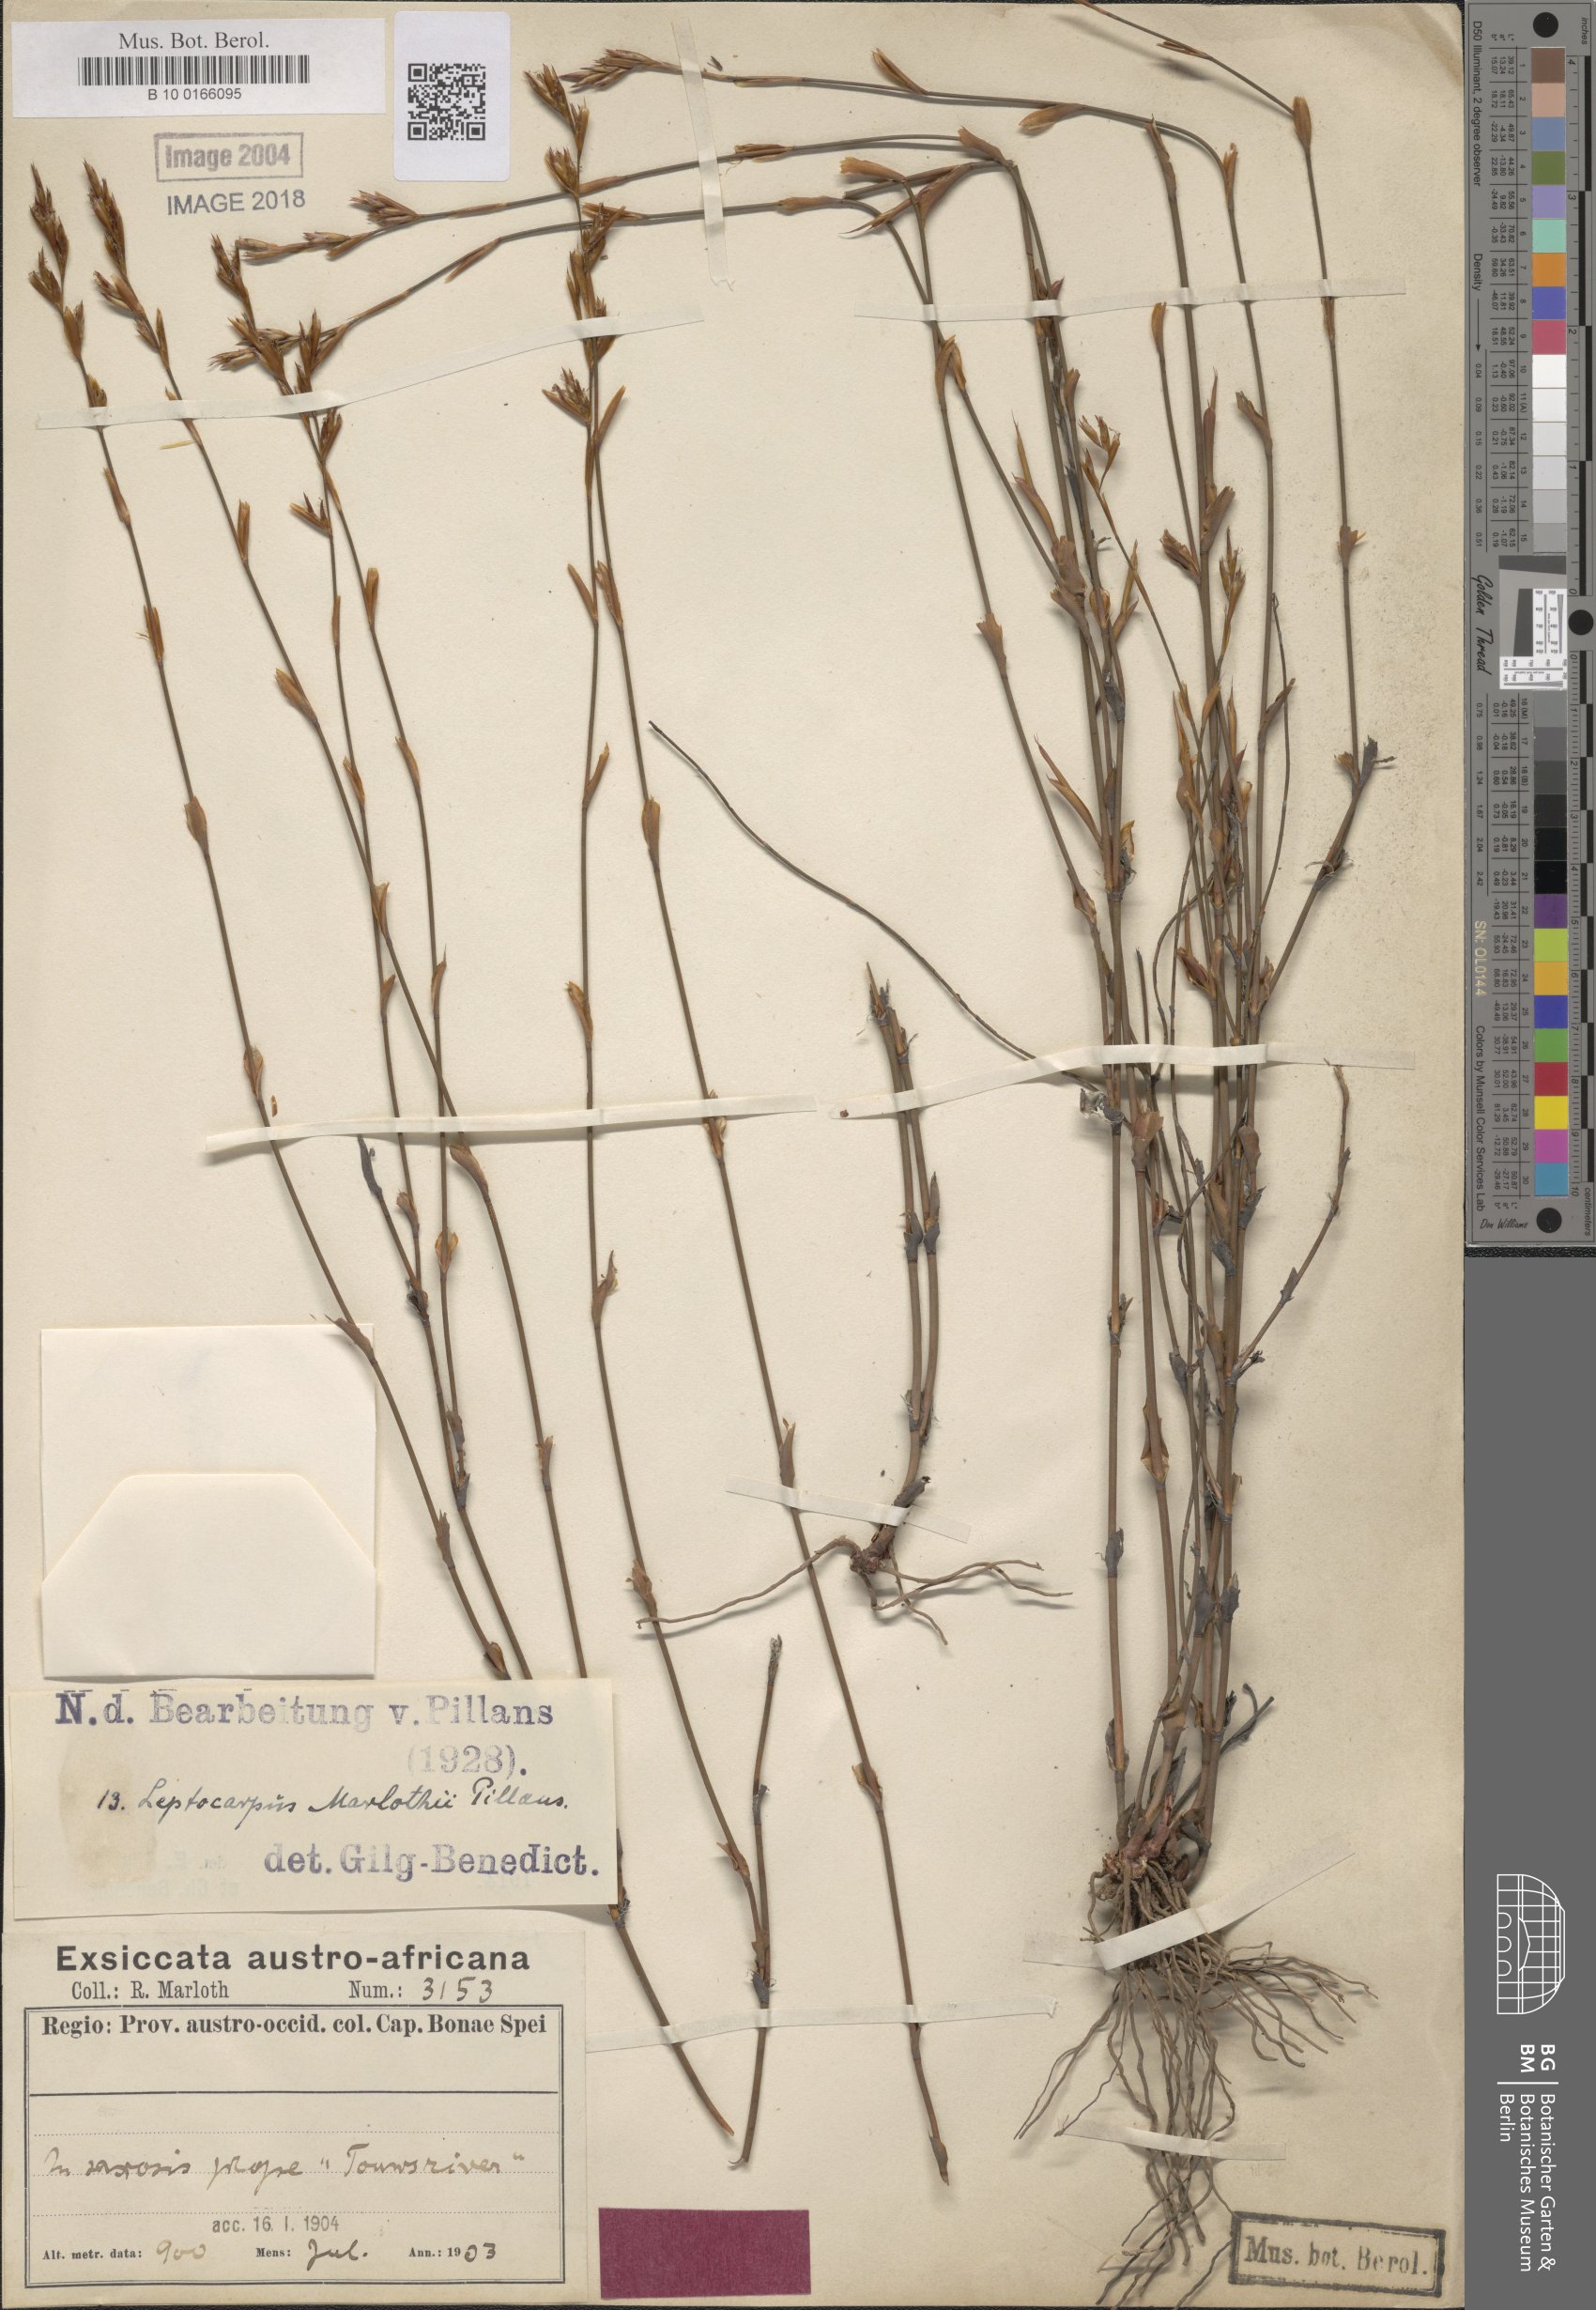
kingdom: Plantae
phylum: Tracheophyta
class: Liliopsida
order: Poales
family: Restionaceae
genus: Restio
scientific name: Restio rudolfii
